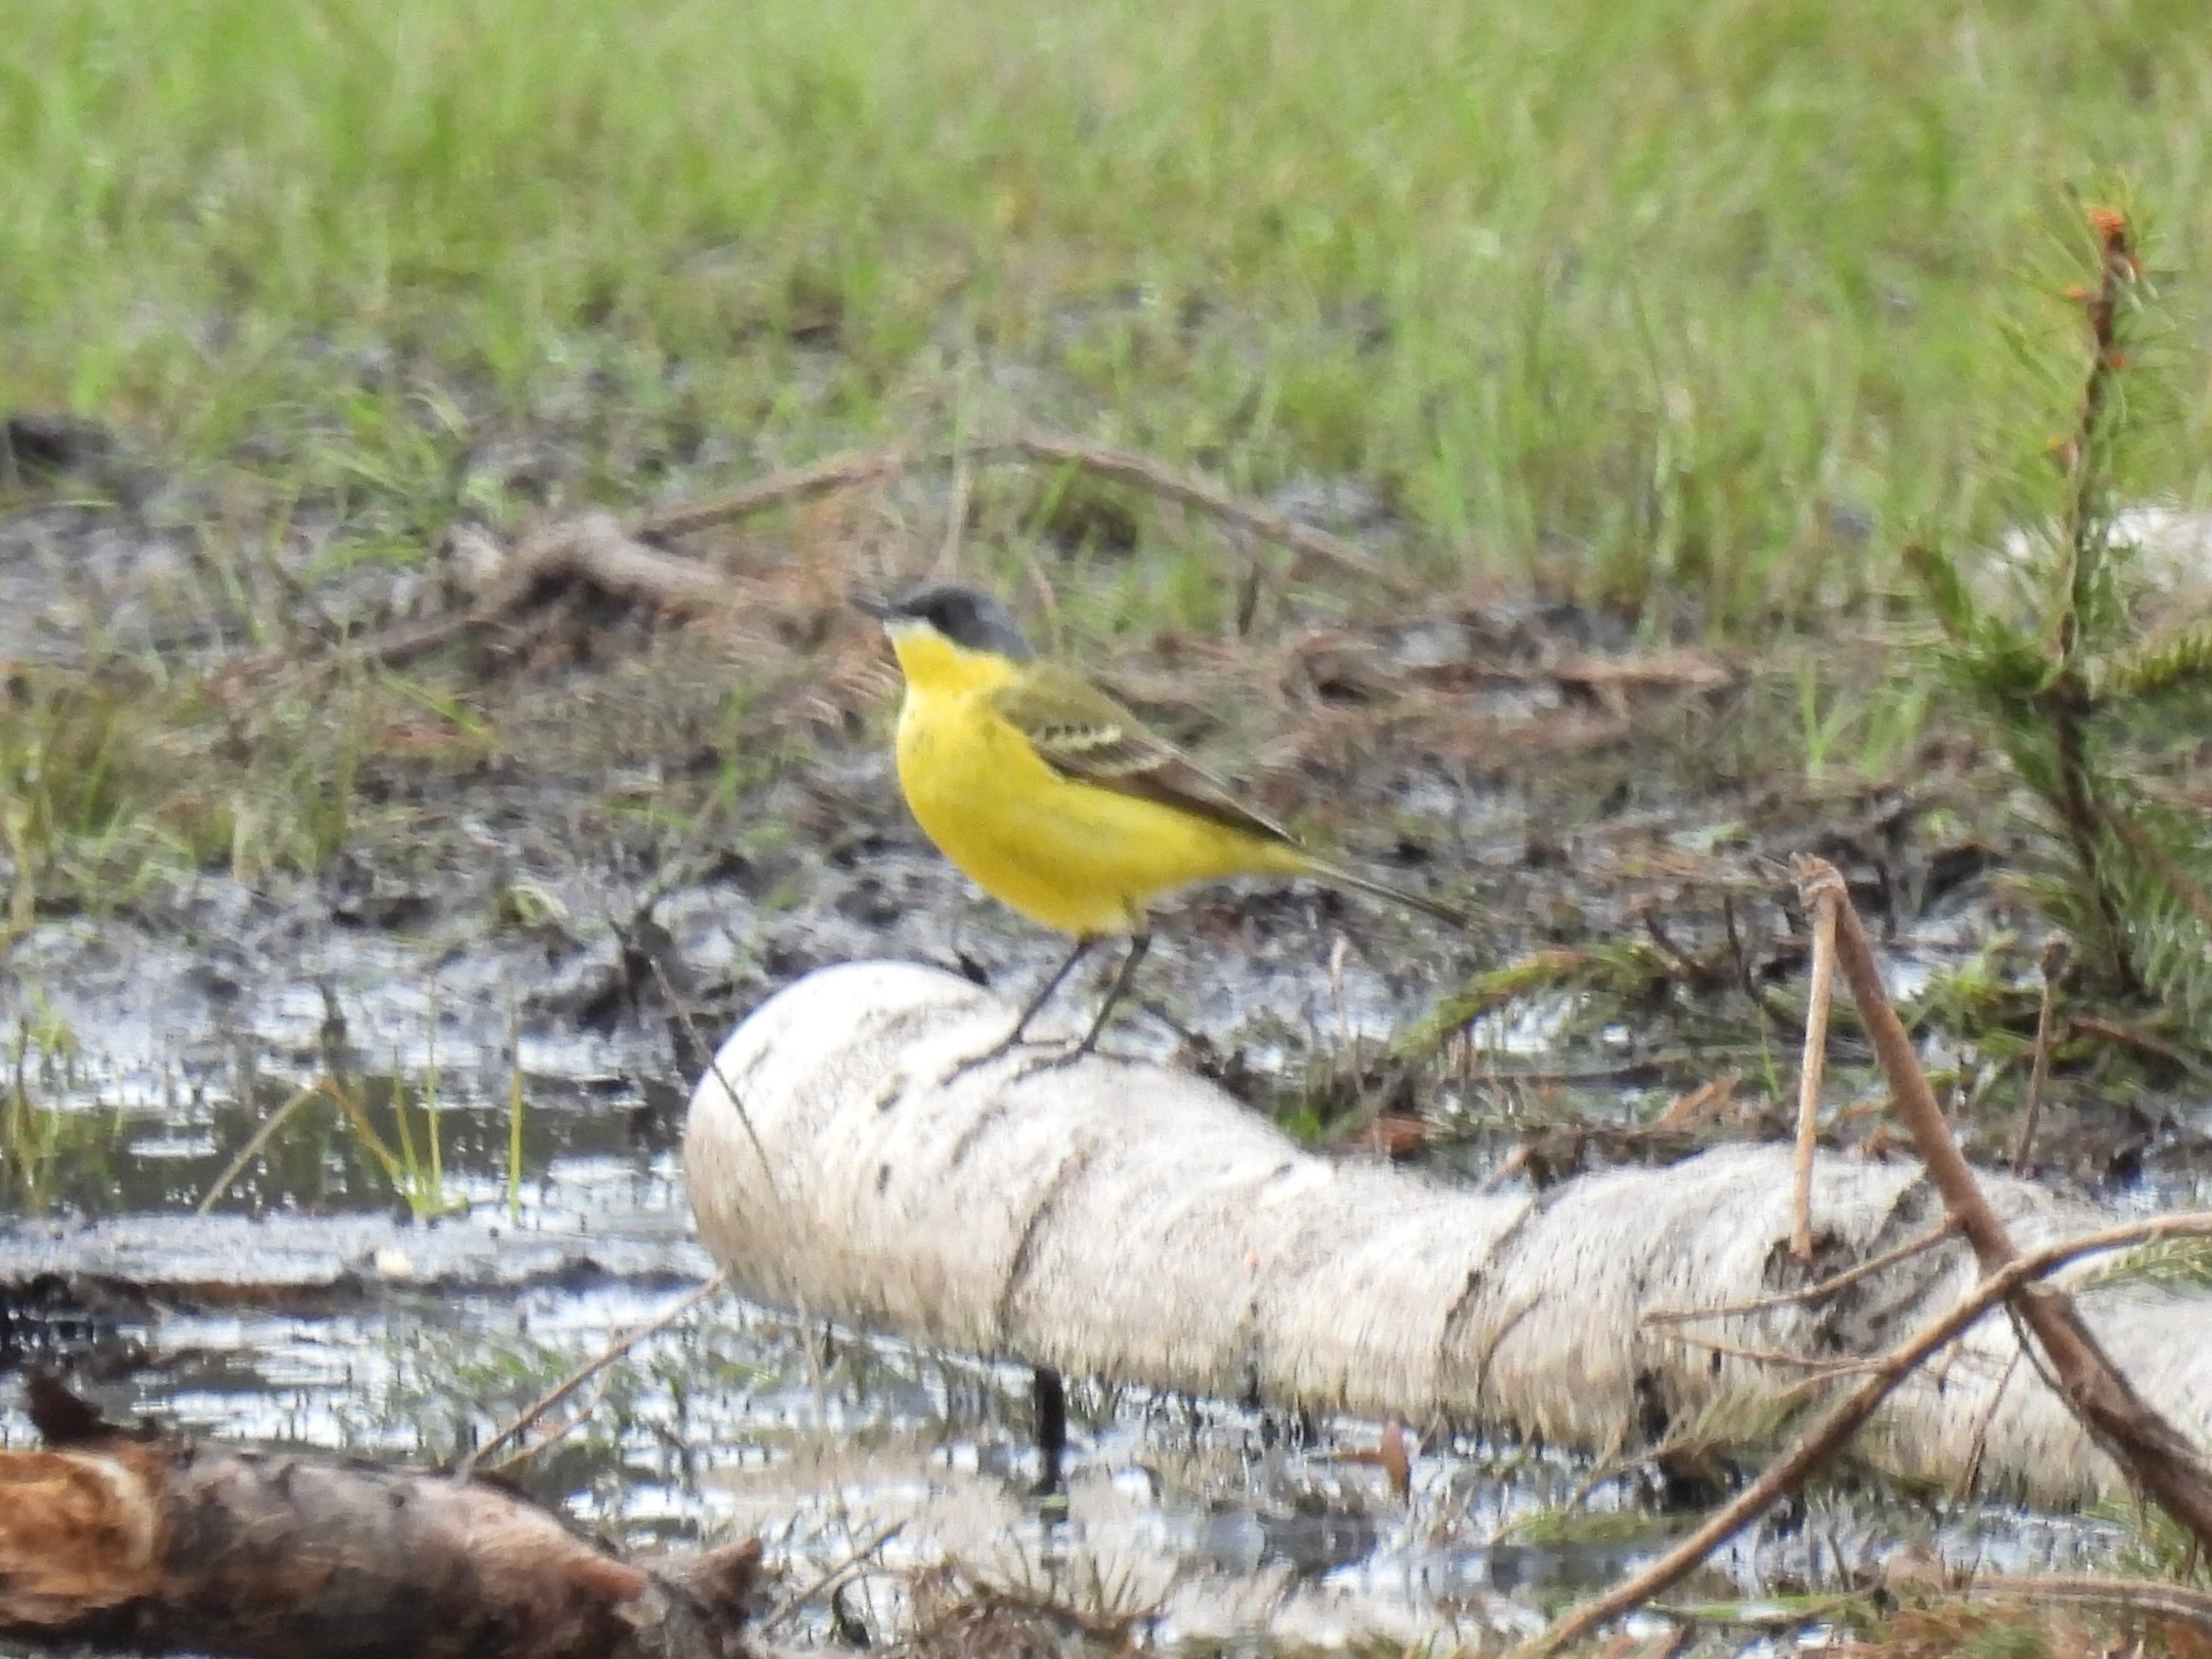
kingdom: Animalia
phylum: Chordata
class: Aves
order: Passeriformes
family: Motacillidae
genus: Motacilla
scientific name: Motacilla flava
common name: Gul vipstjert
